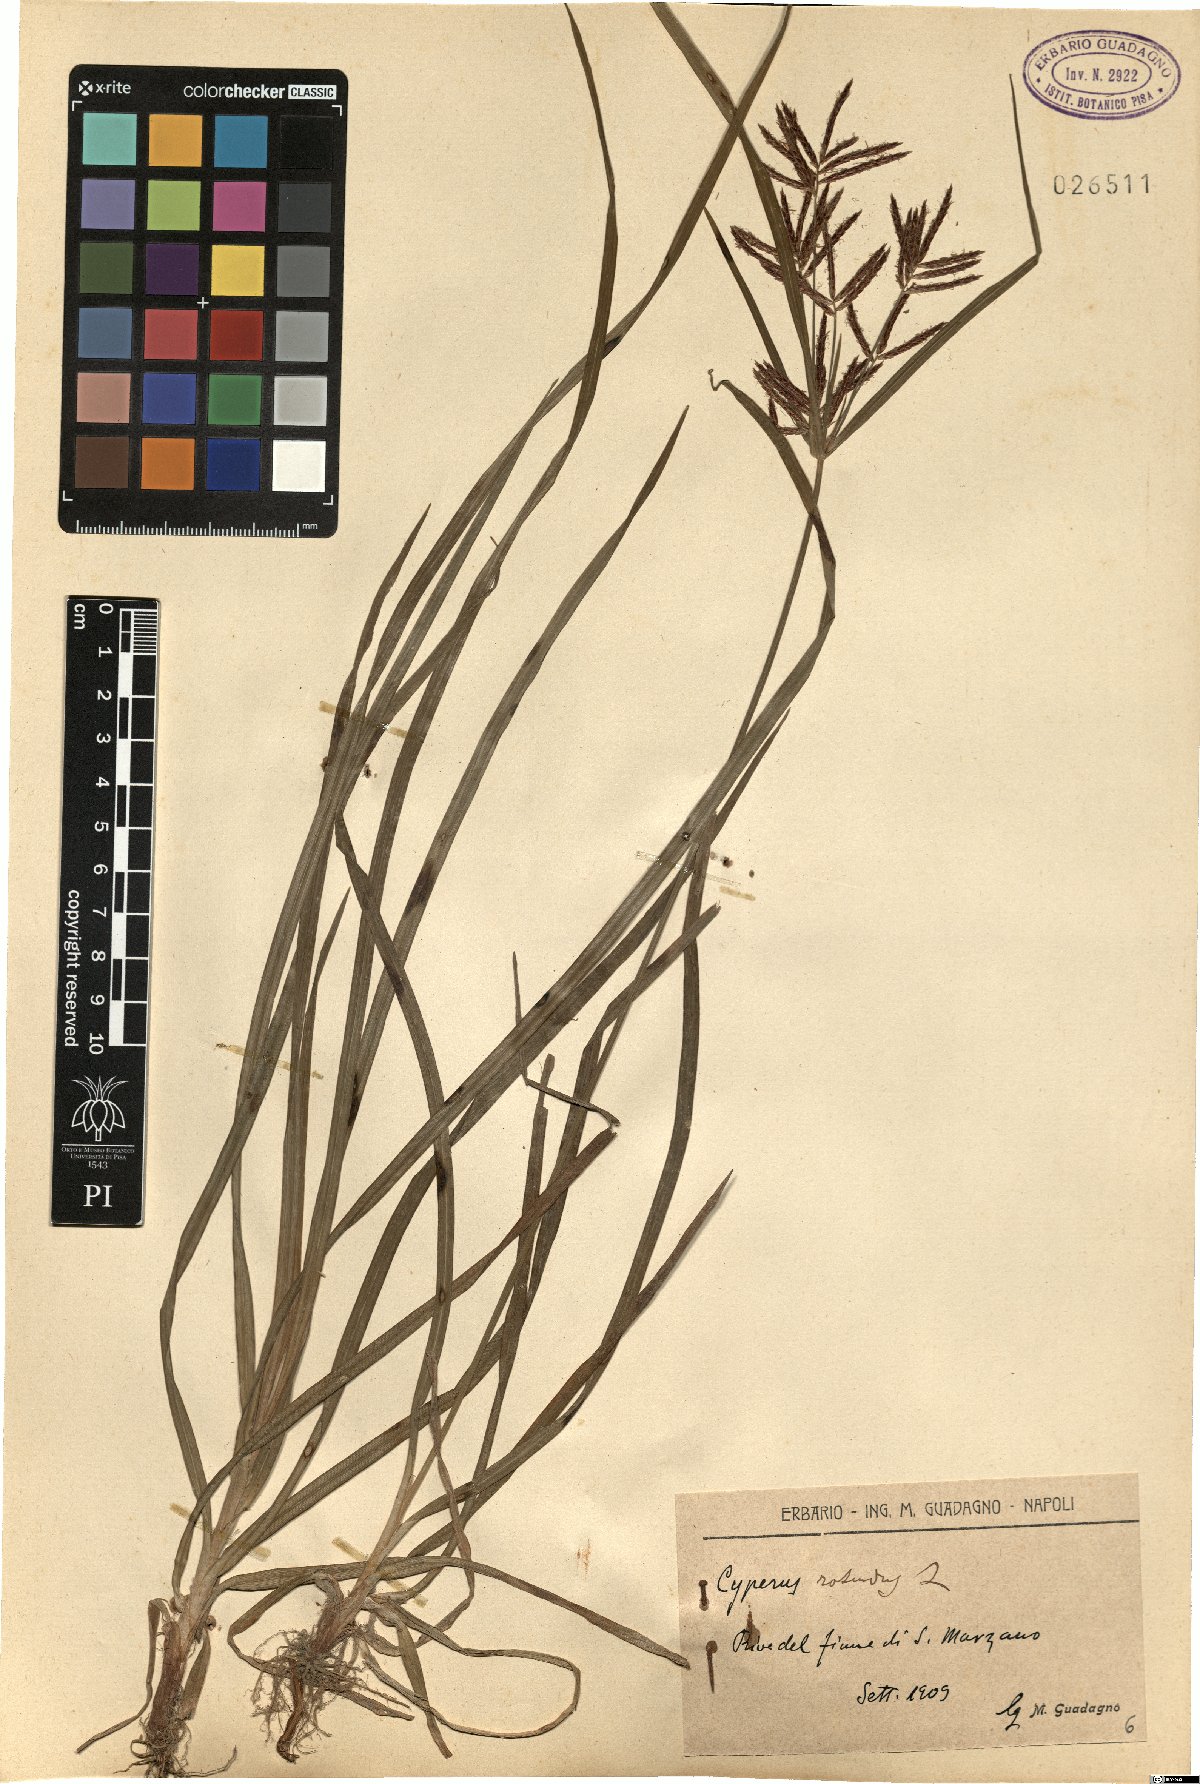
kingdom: Plantae
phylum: Tracheophyta
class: Liliopsida
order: Poales
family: Cyperaceae
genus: Cyperus
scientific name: Cyperus rotundus
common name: Nutgrass
